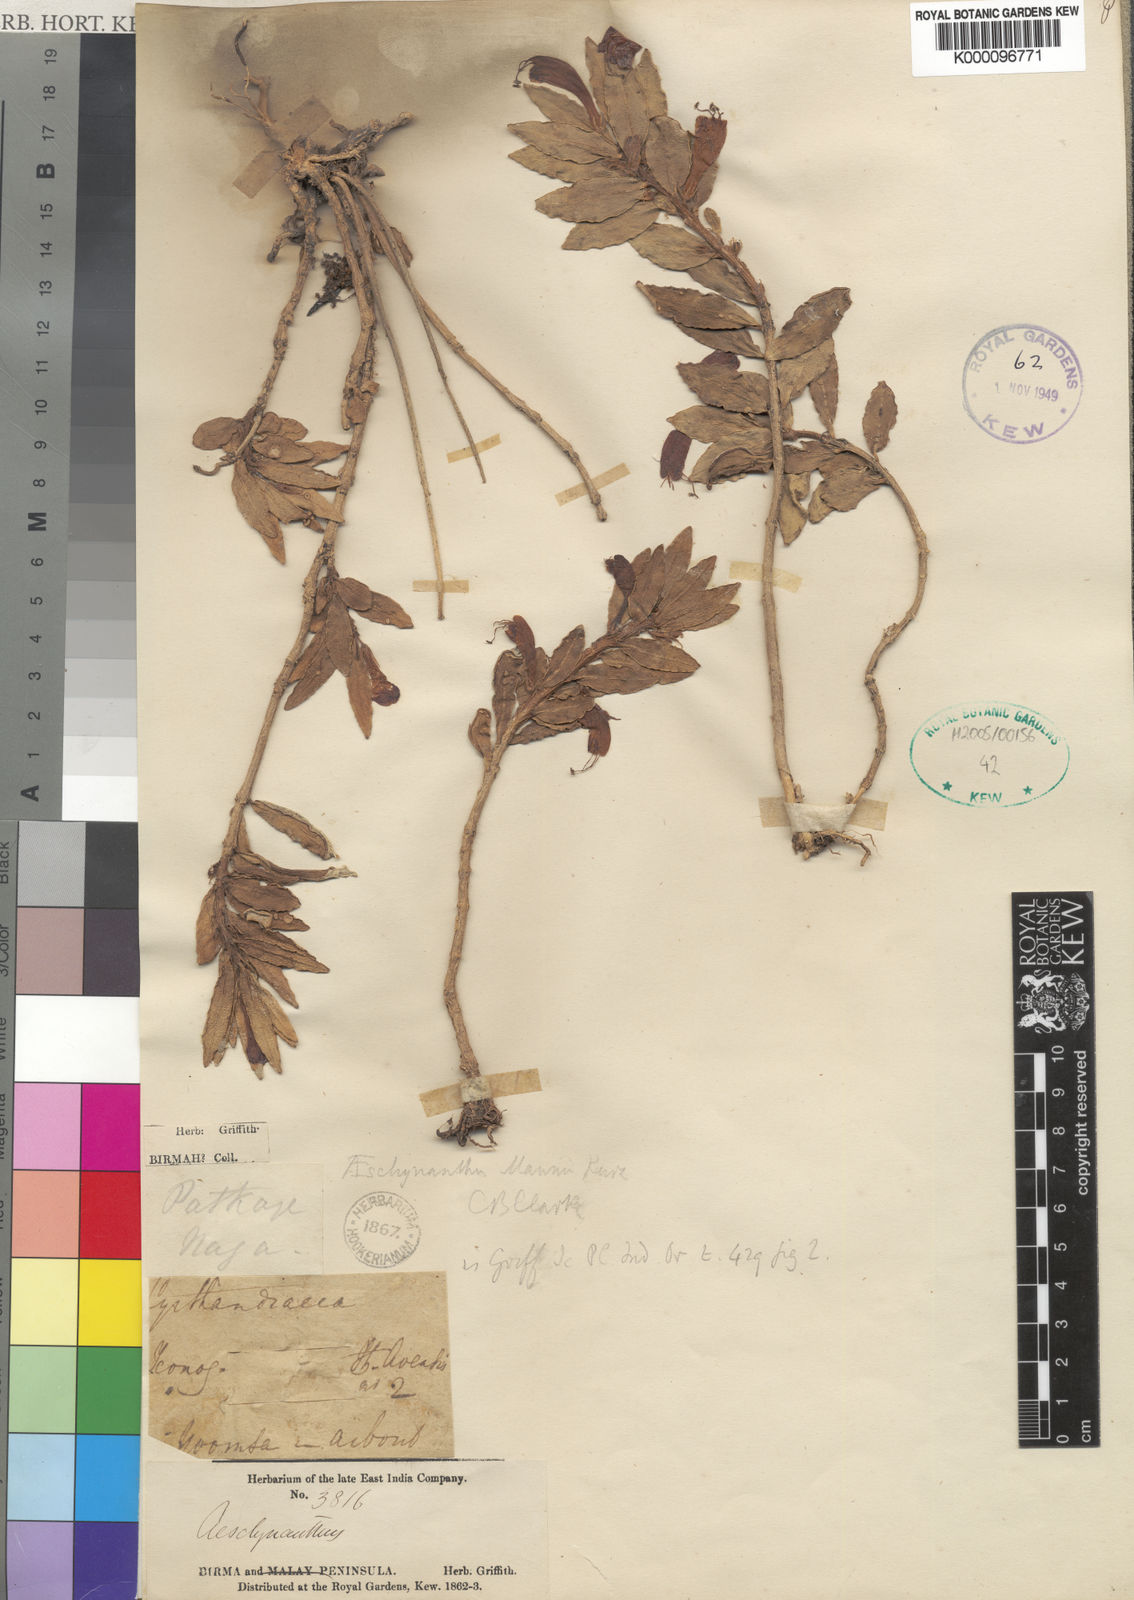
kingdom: Plantae
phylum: Tracheophyta
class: Magnoliopsida
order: Lamiales
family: Gesneriaceae
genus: Aeschynanthus
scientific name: Aeschynanthus mannii
